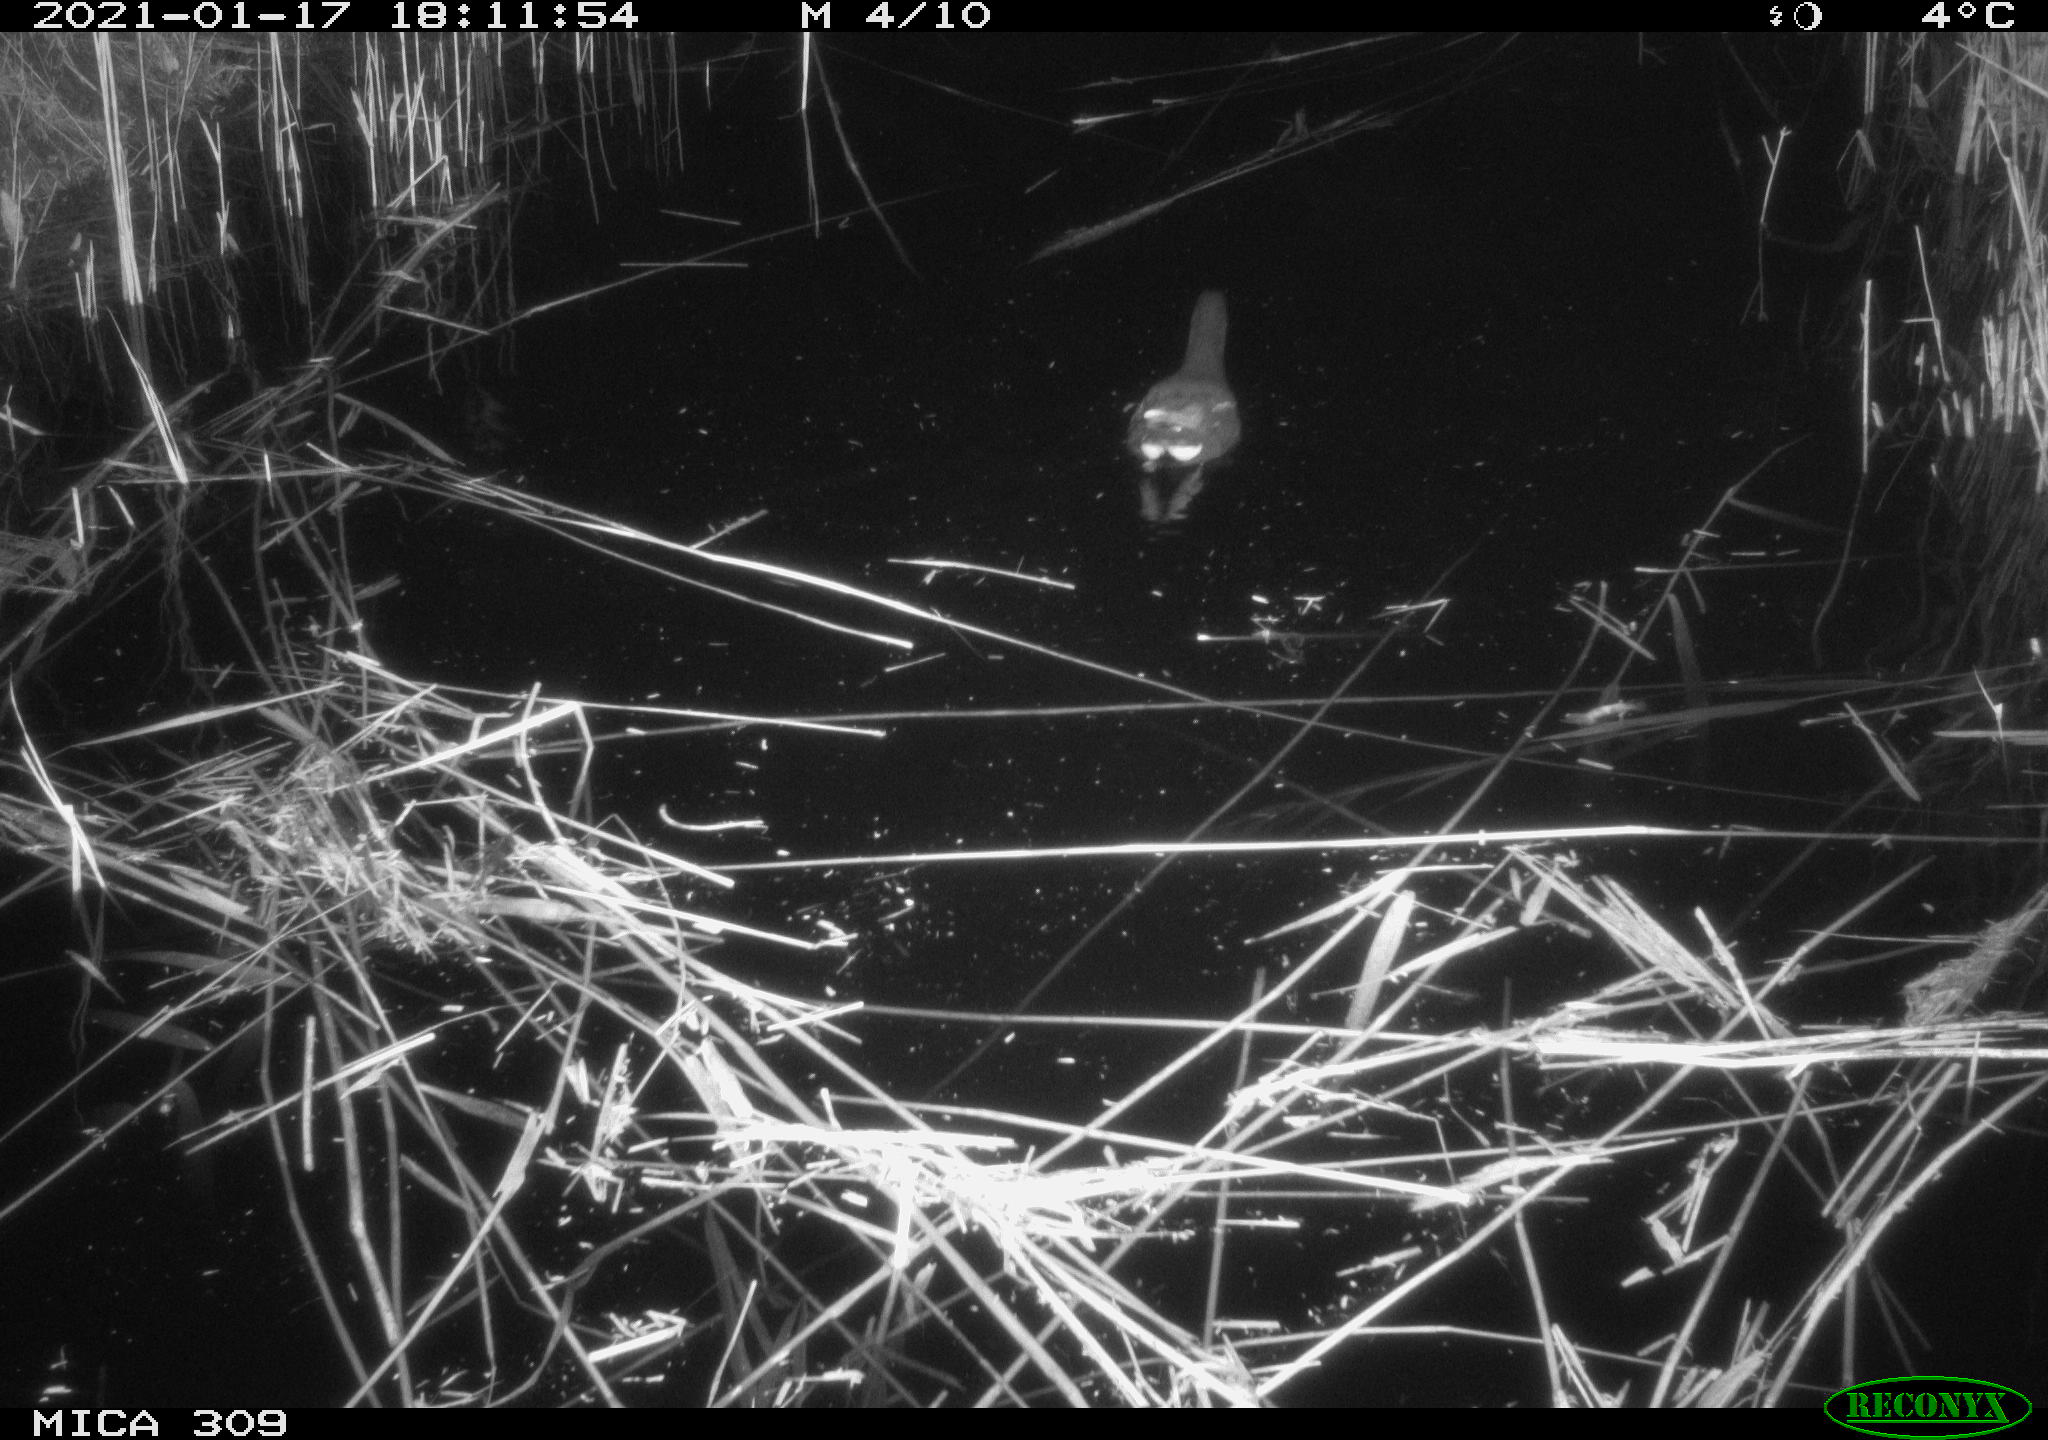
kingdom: Animalia
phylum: Chordata
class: Aves
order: Gruiformes
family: Rallidae
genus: Gallinula
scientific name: Gallinula chloropus
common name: Common moorhen
